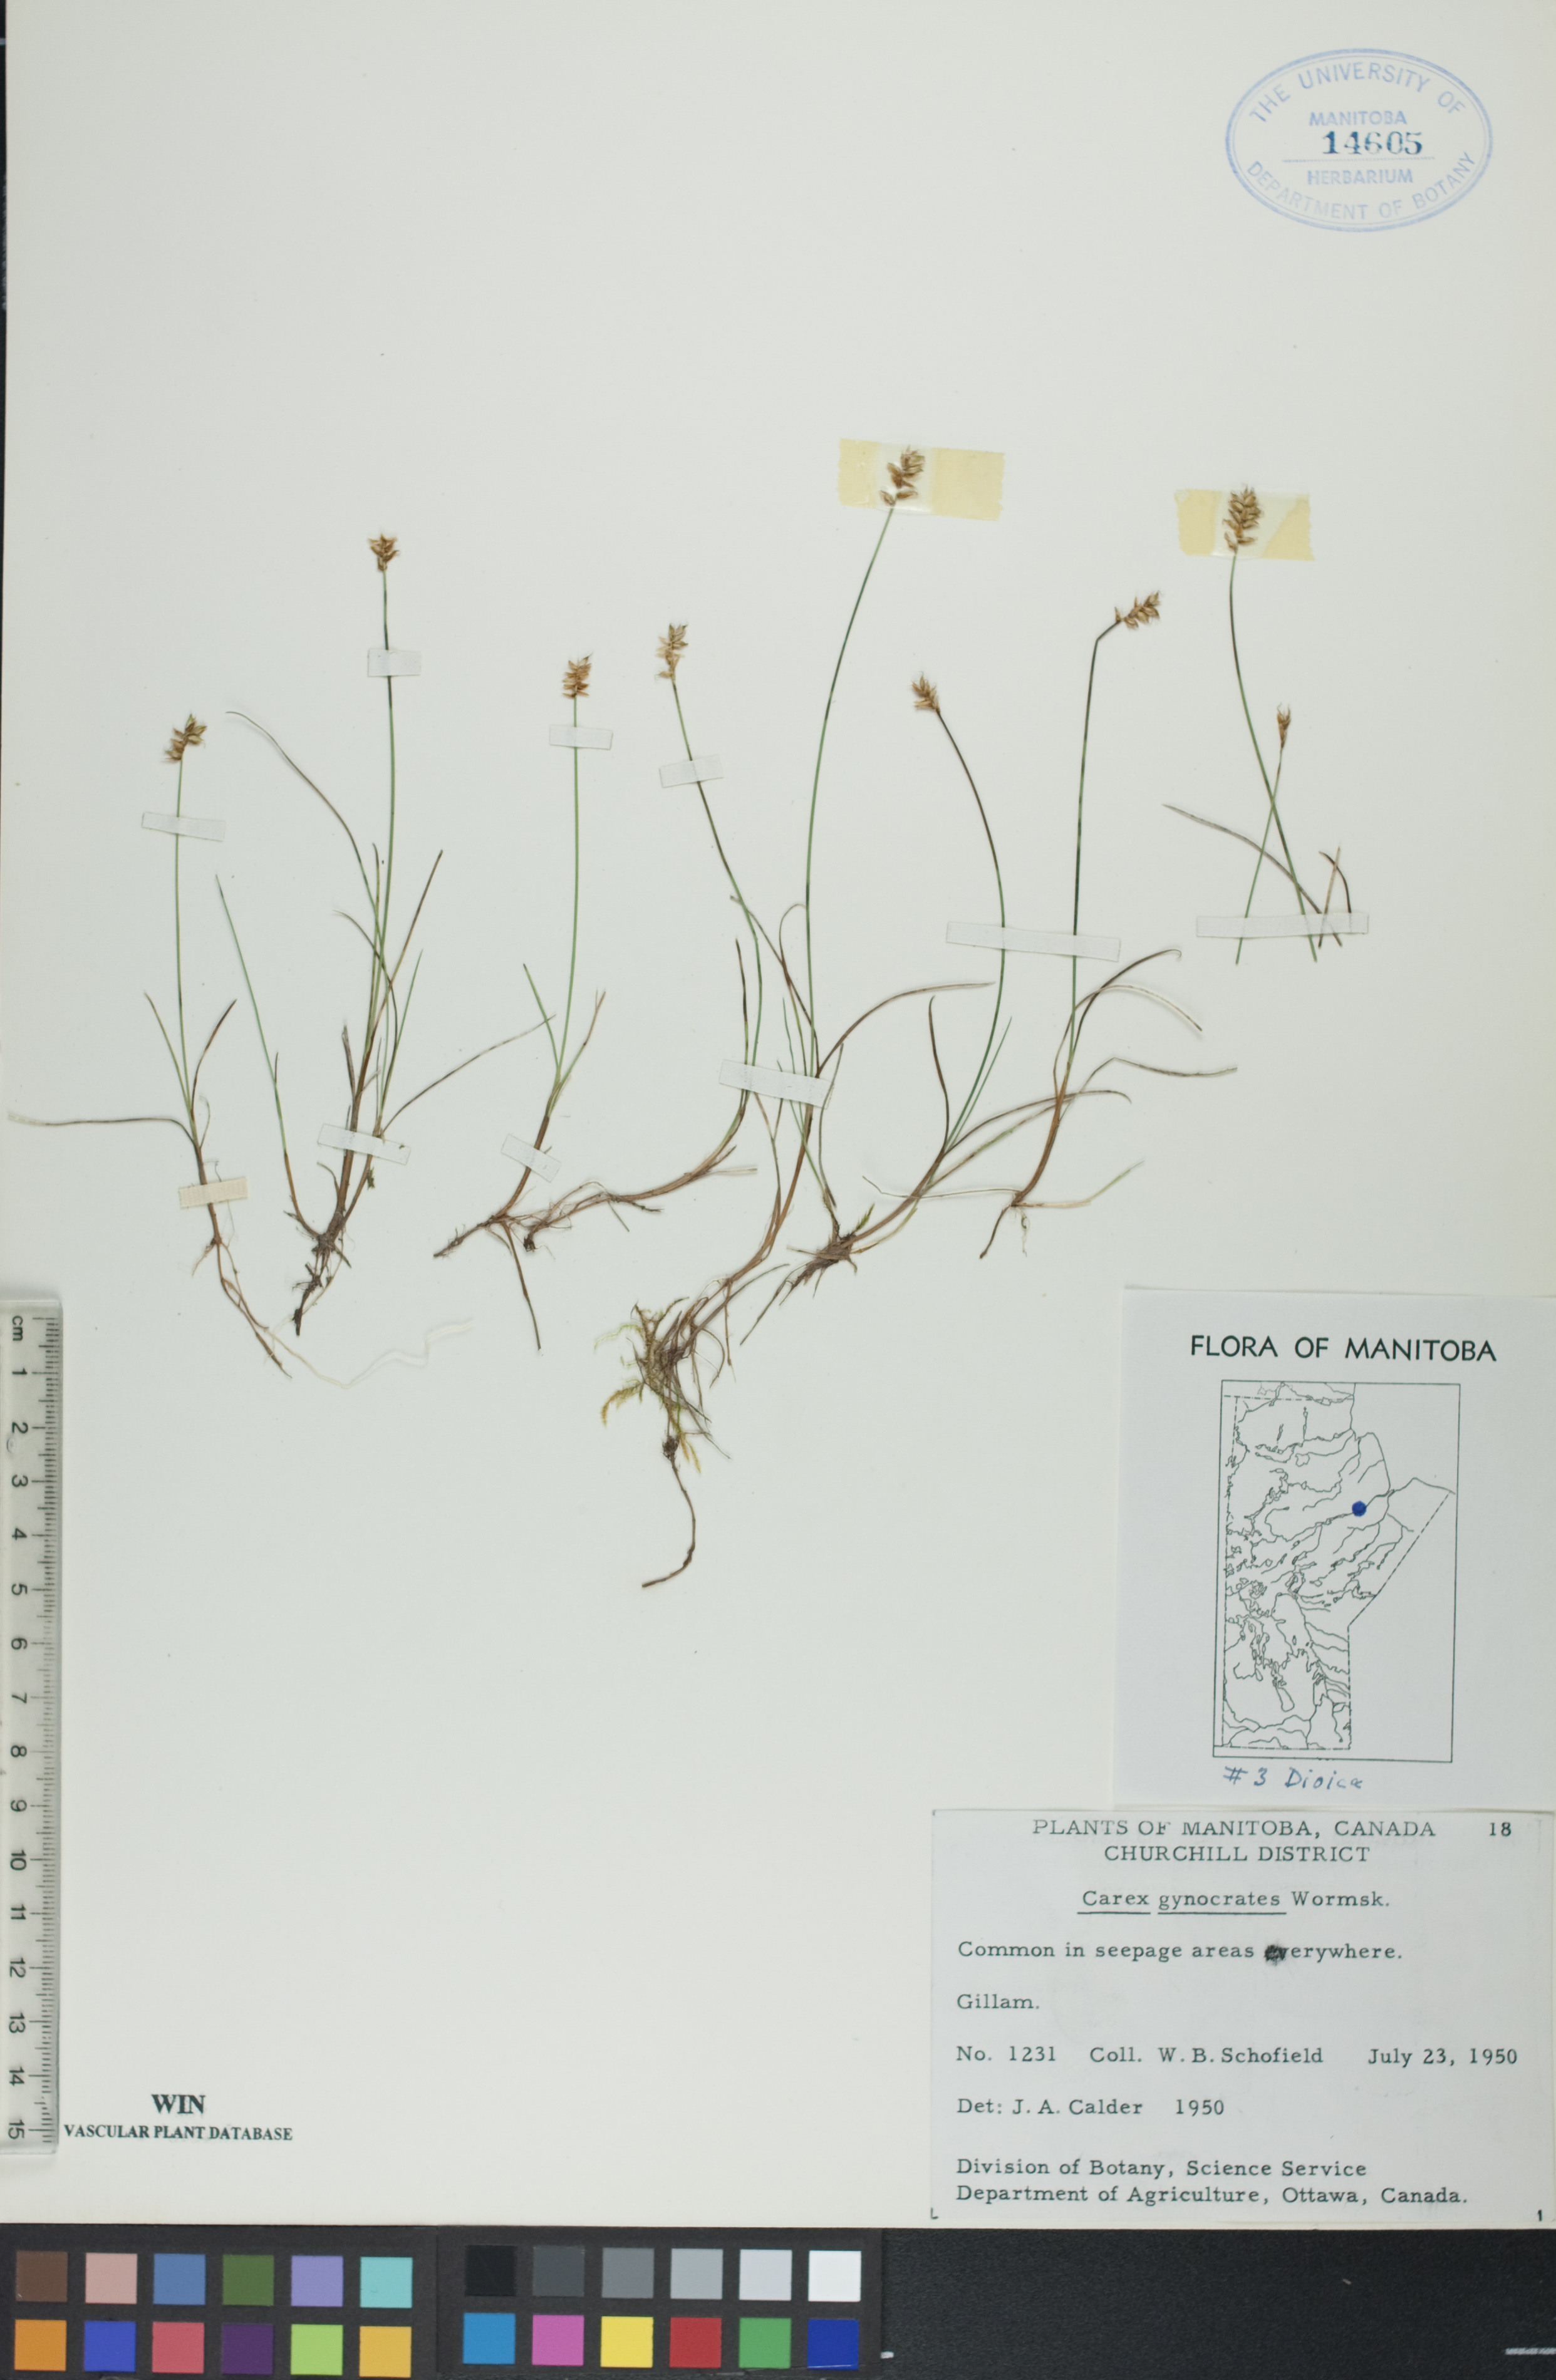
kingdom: Plantae
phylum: Tracheophyta
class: Liliopsida
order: Poales
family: Cyperaceae
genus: Carex
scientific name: Carex nardina
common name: Nard sedge
